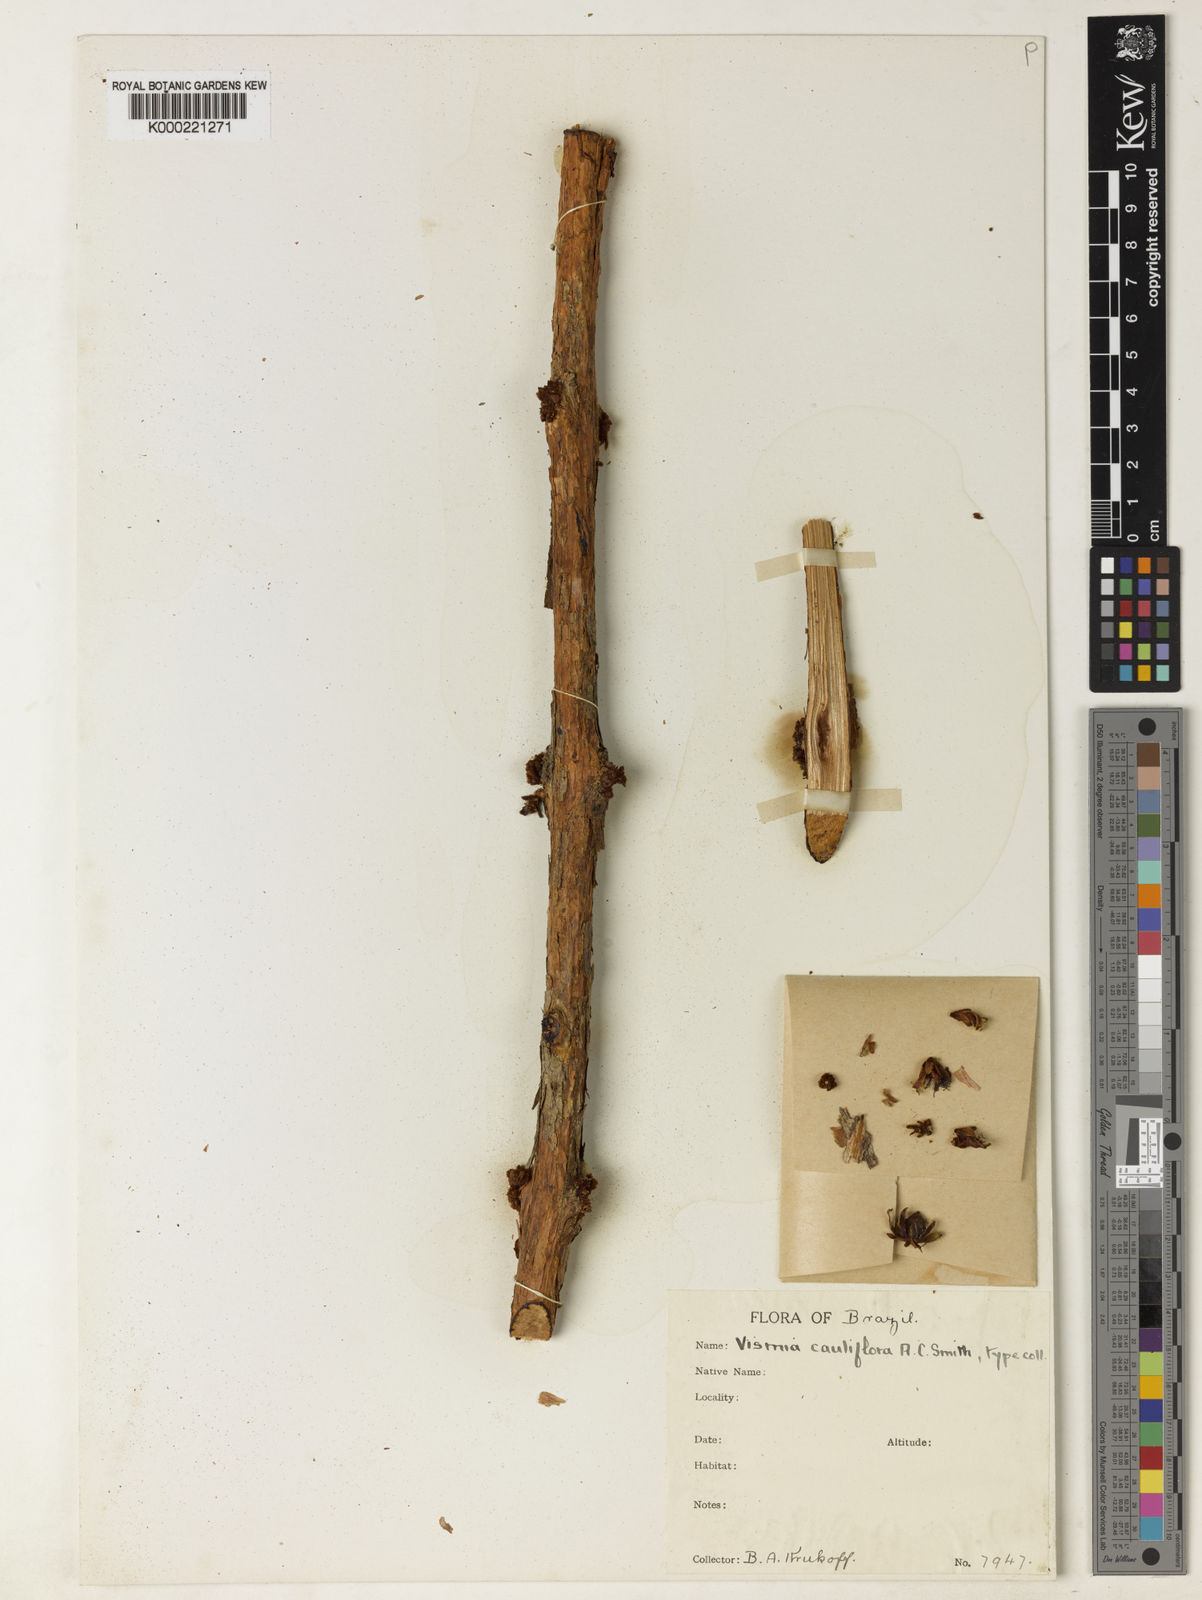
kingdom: Plantae
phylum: Tracheophyta
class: Magnoliopsida
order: Malpighiales
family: Hypericaceae
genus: Vismia
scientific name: Vismia cauliflora
